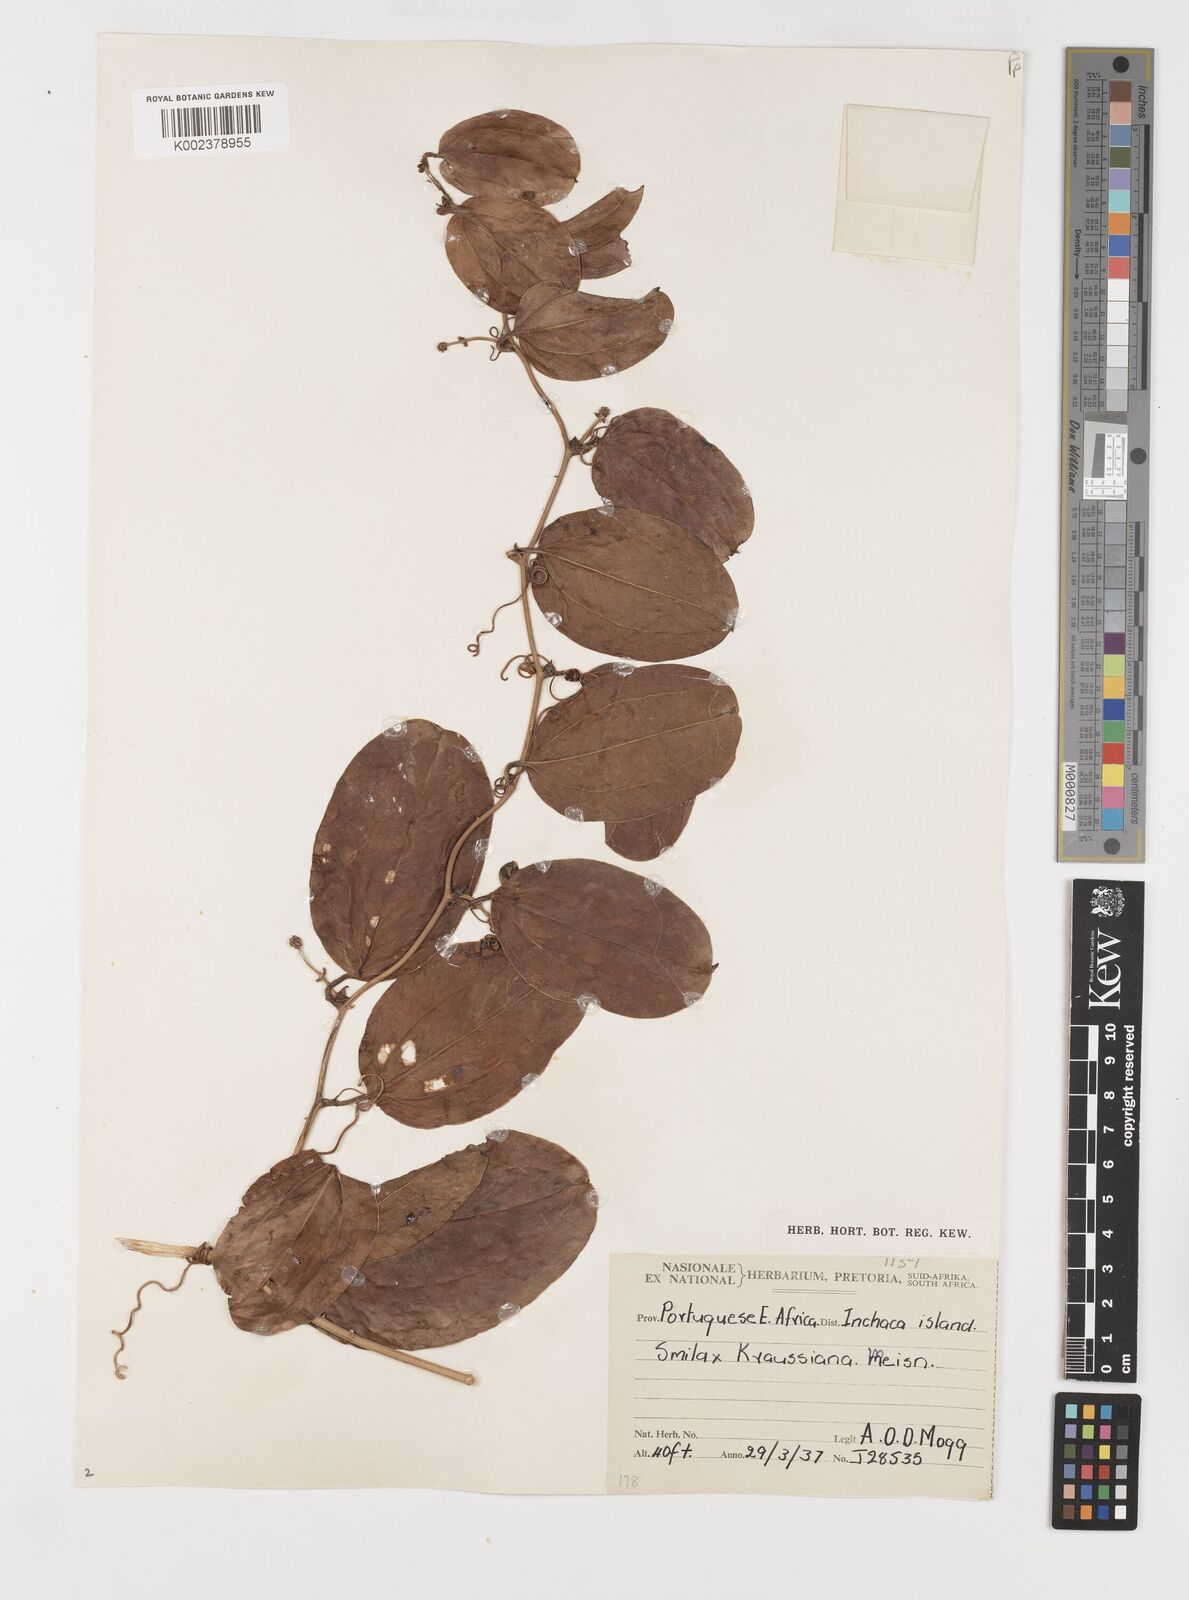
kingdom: Plantae
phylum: Tracheophyta
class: Liliopsida
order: Liliales
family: Smilacaceae
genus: Smilax
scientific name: Smilax anceps
